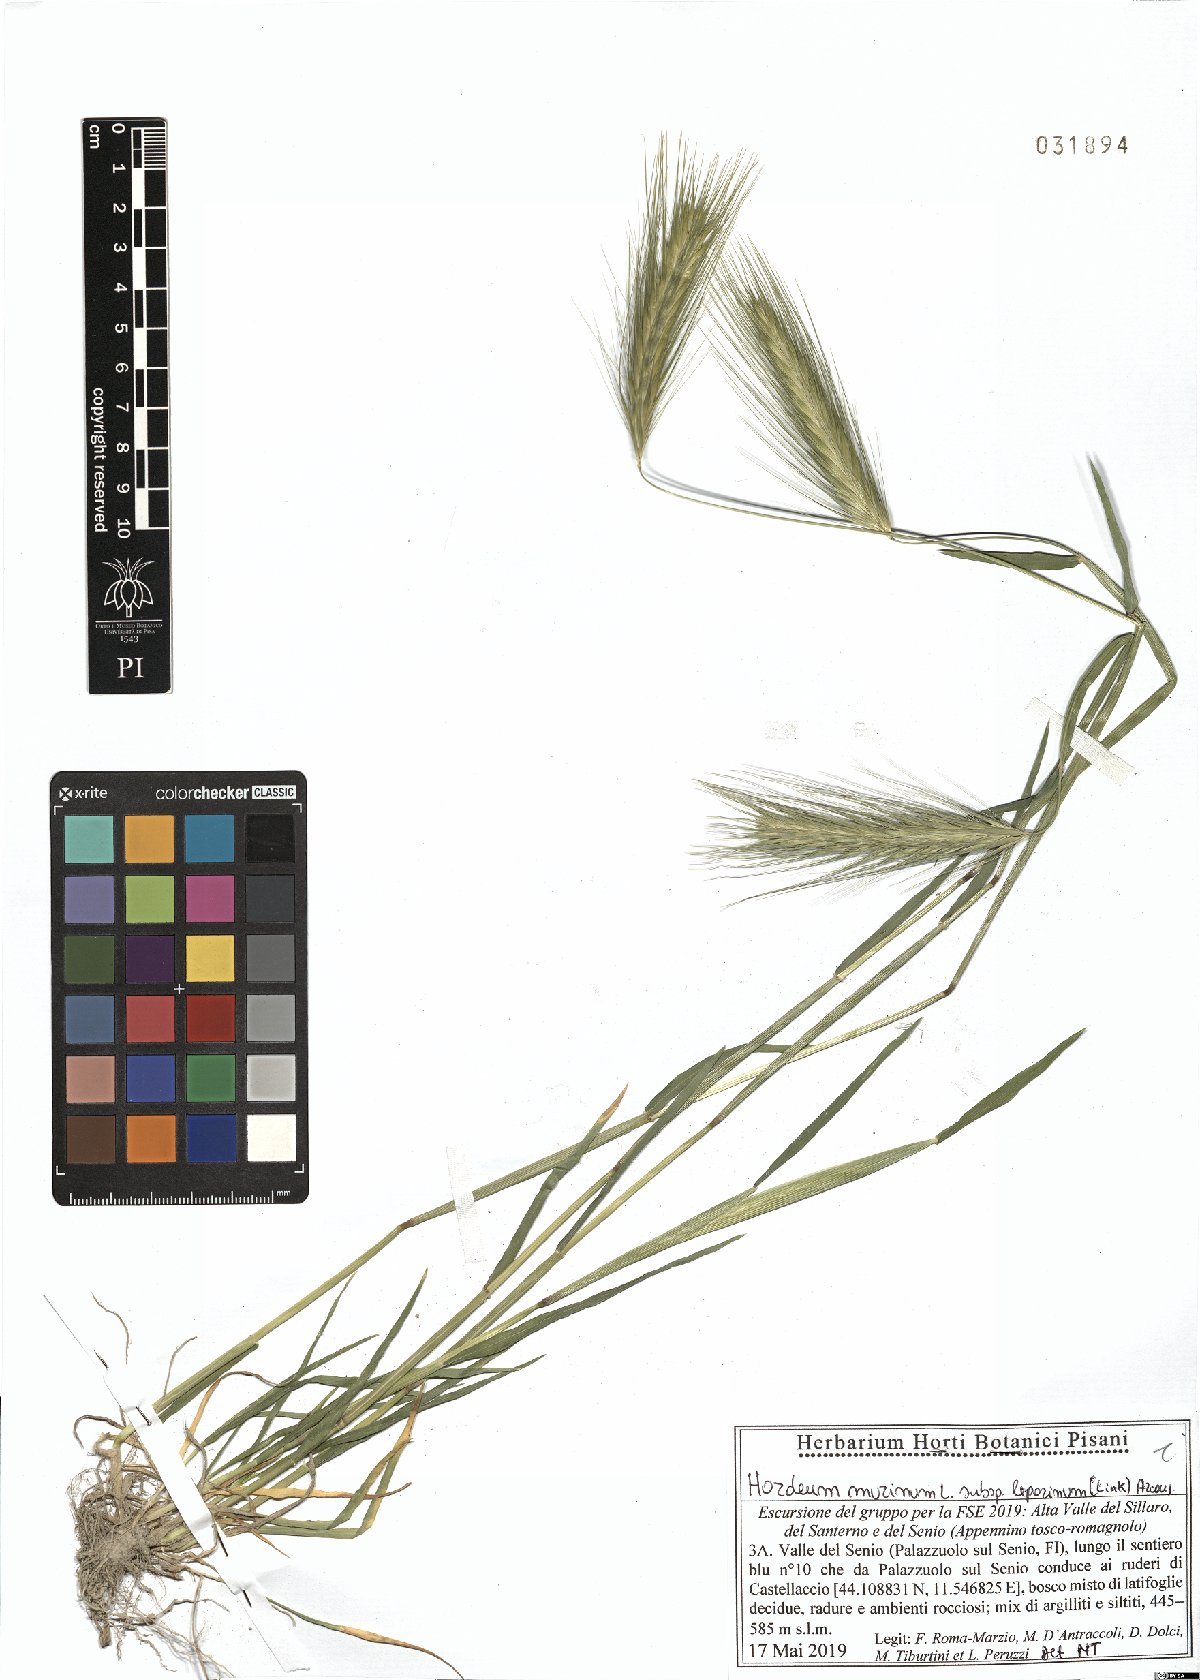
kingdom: Plantae
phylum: Tracheophyta
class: Liliopsida
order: Poales
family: Poaceae
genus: Hordeum
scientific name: Hordeum murinum
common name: Wall barley
